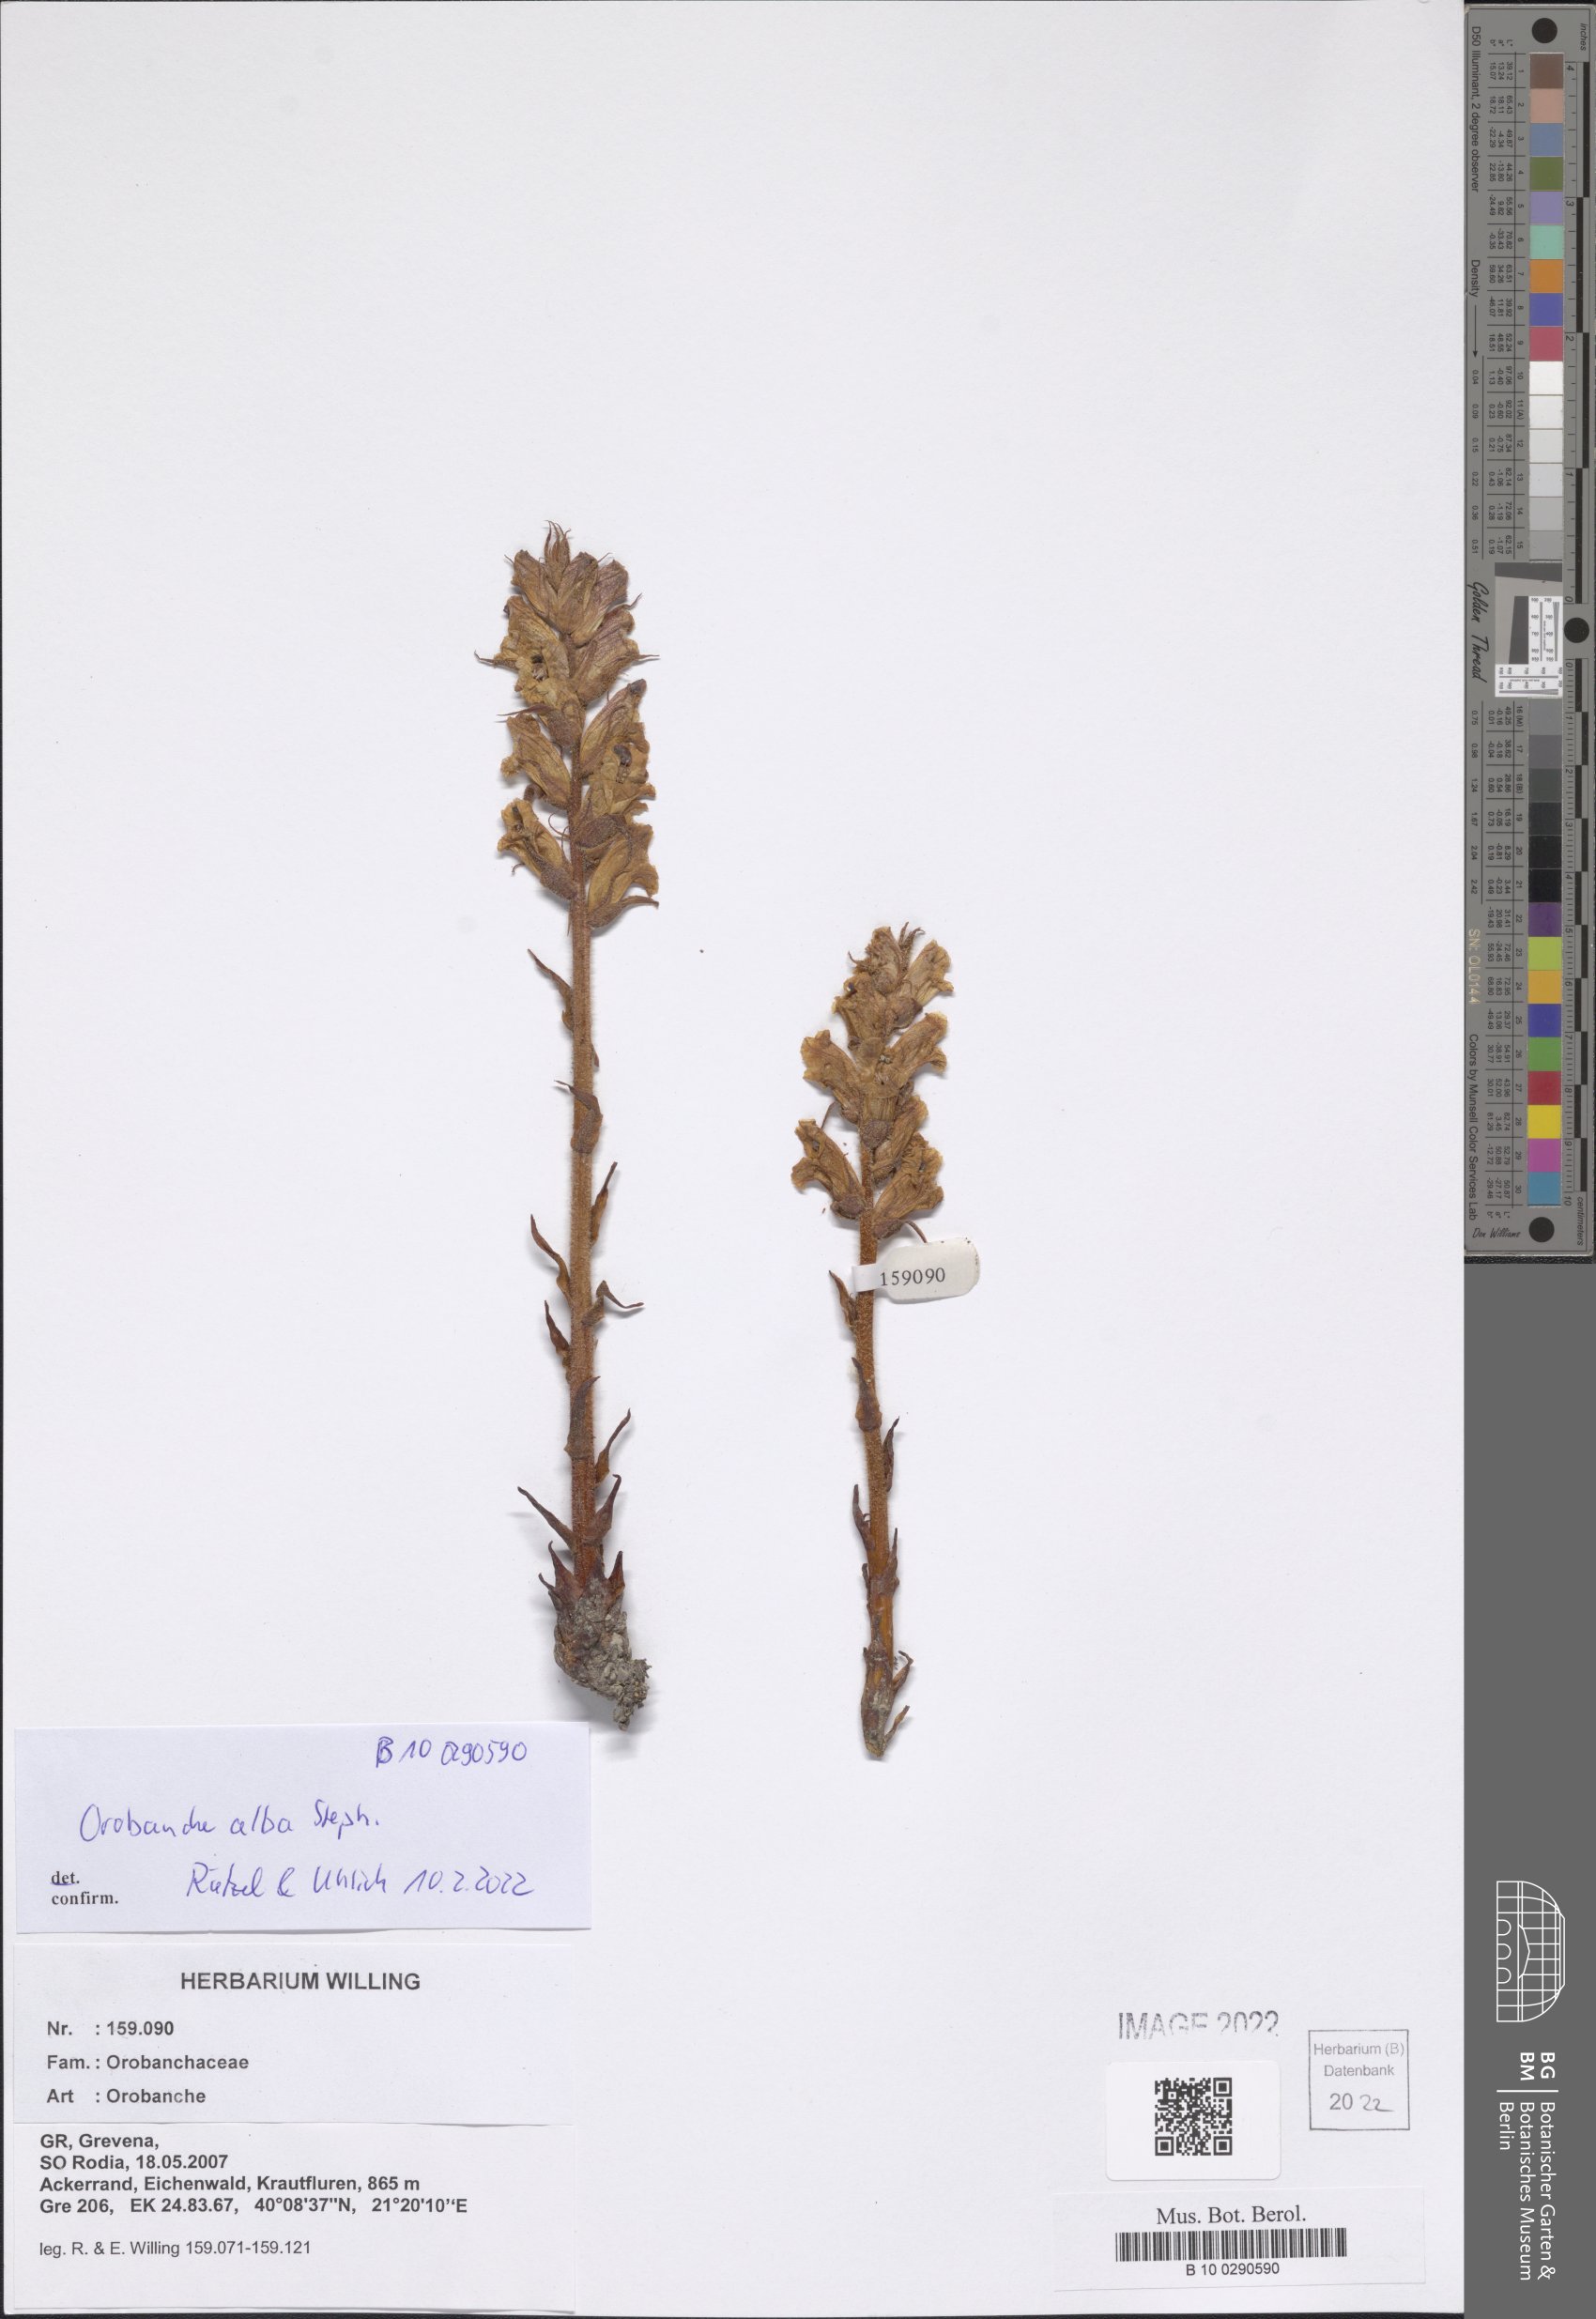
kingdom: Plantae
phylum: Tracheophyta
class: Magnoliopsida
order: Lamiales
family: Orobanchaceae
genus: Orobanche
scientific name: Orobanche alba
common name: Thyme broomrape
